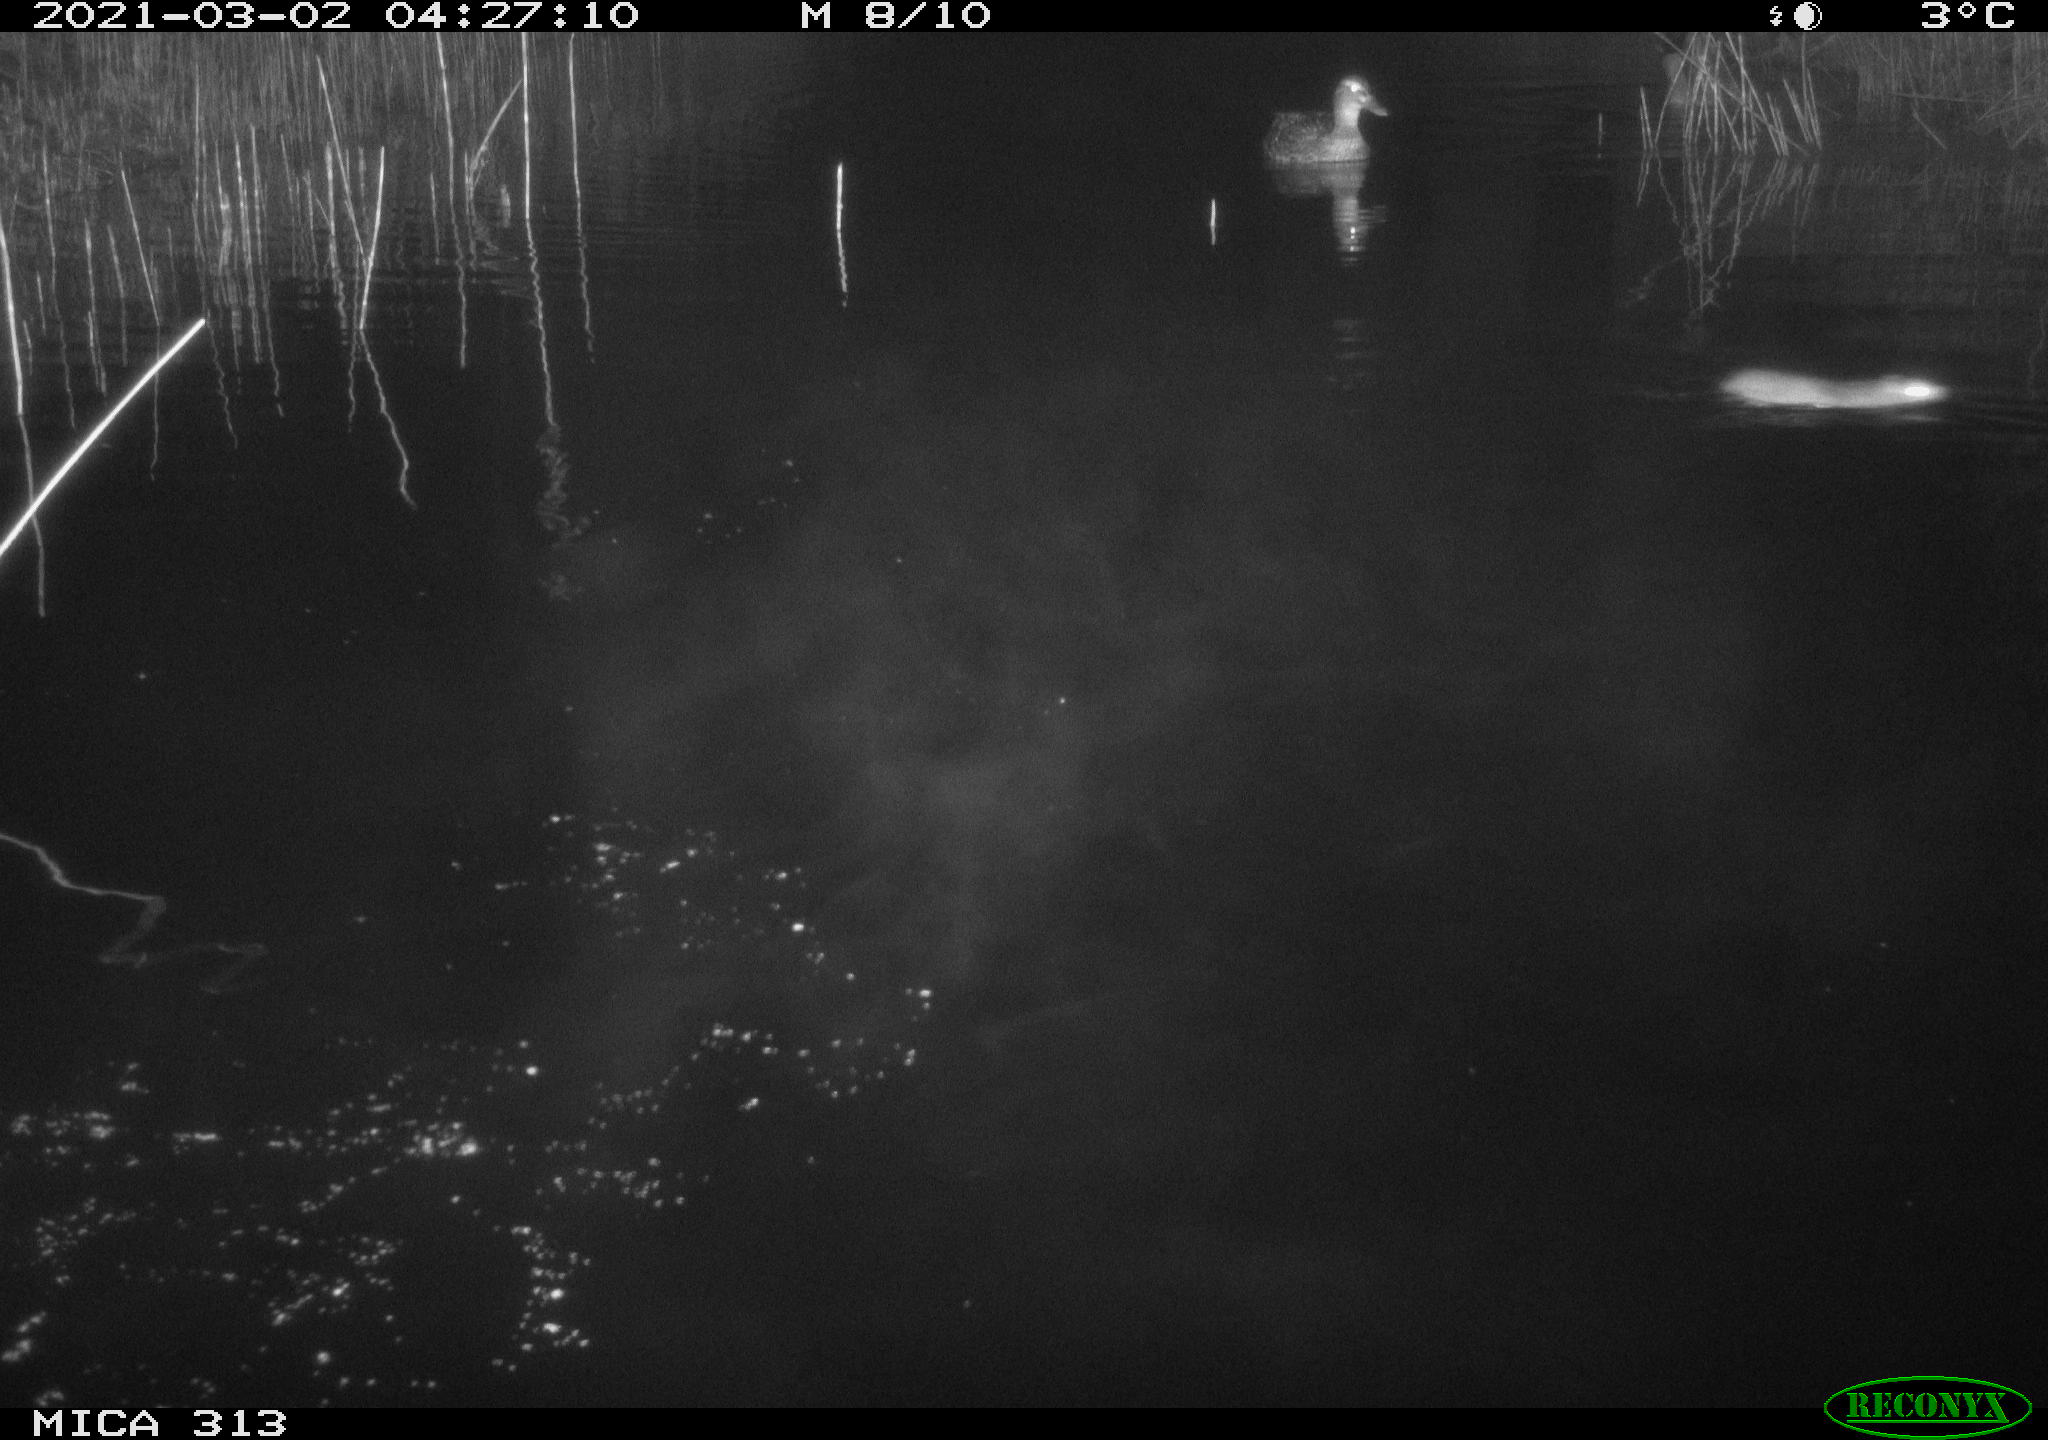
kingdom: Animalia
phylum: Chordata
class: Mammalia
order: Rodentia
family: Muridae
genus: Rattus
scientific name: Rattus norvegicus
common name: Brown rat
